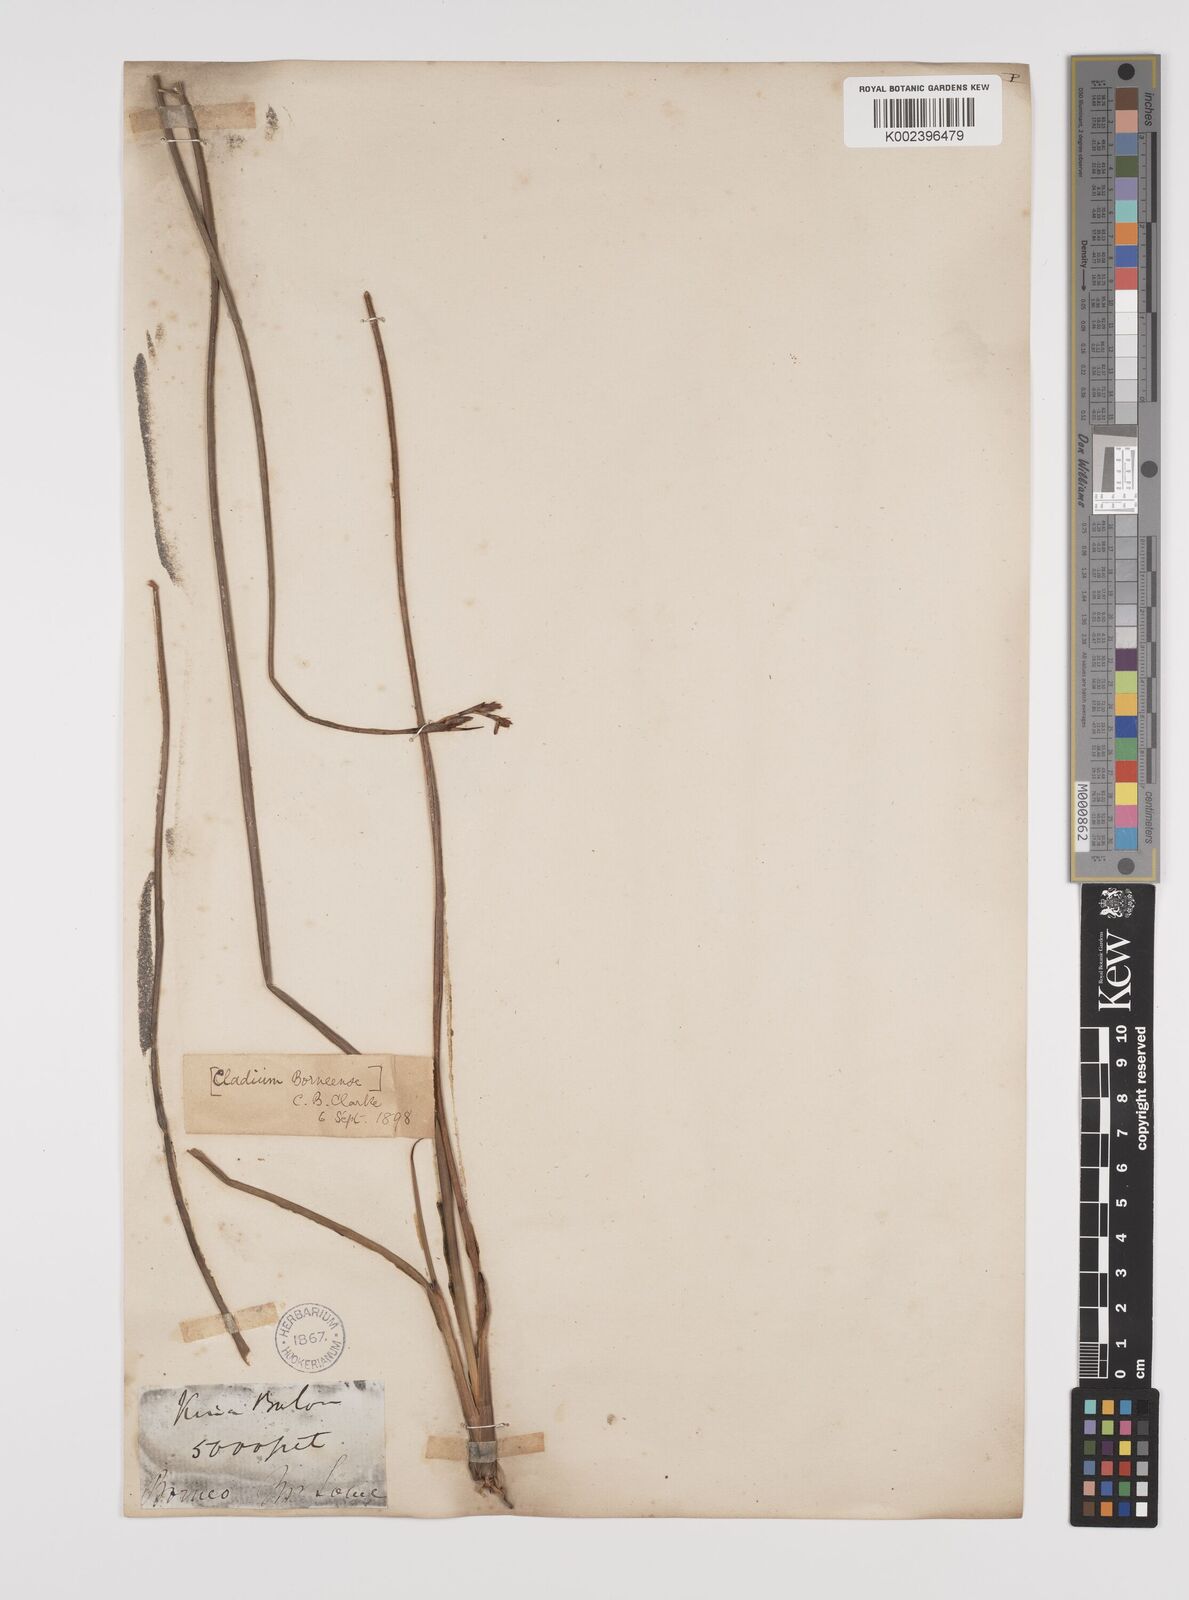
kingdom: Plantae
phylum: Tracheophyta
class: Liliopsida
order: Poales
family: Cyperaceae
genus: Lepidosperma
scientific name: Lepidosperma chinense
